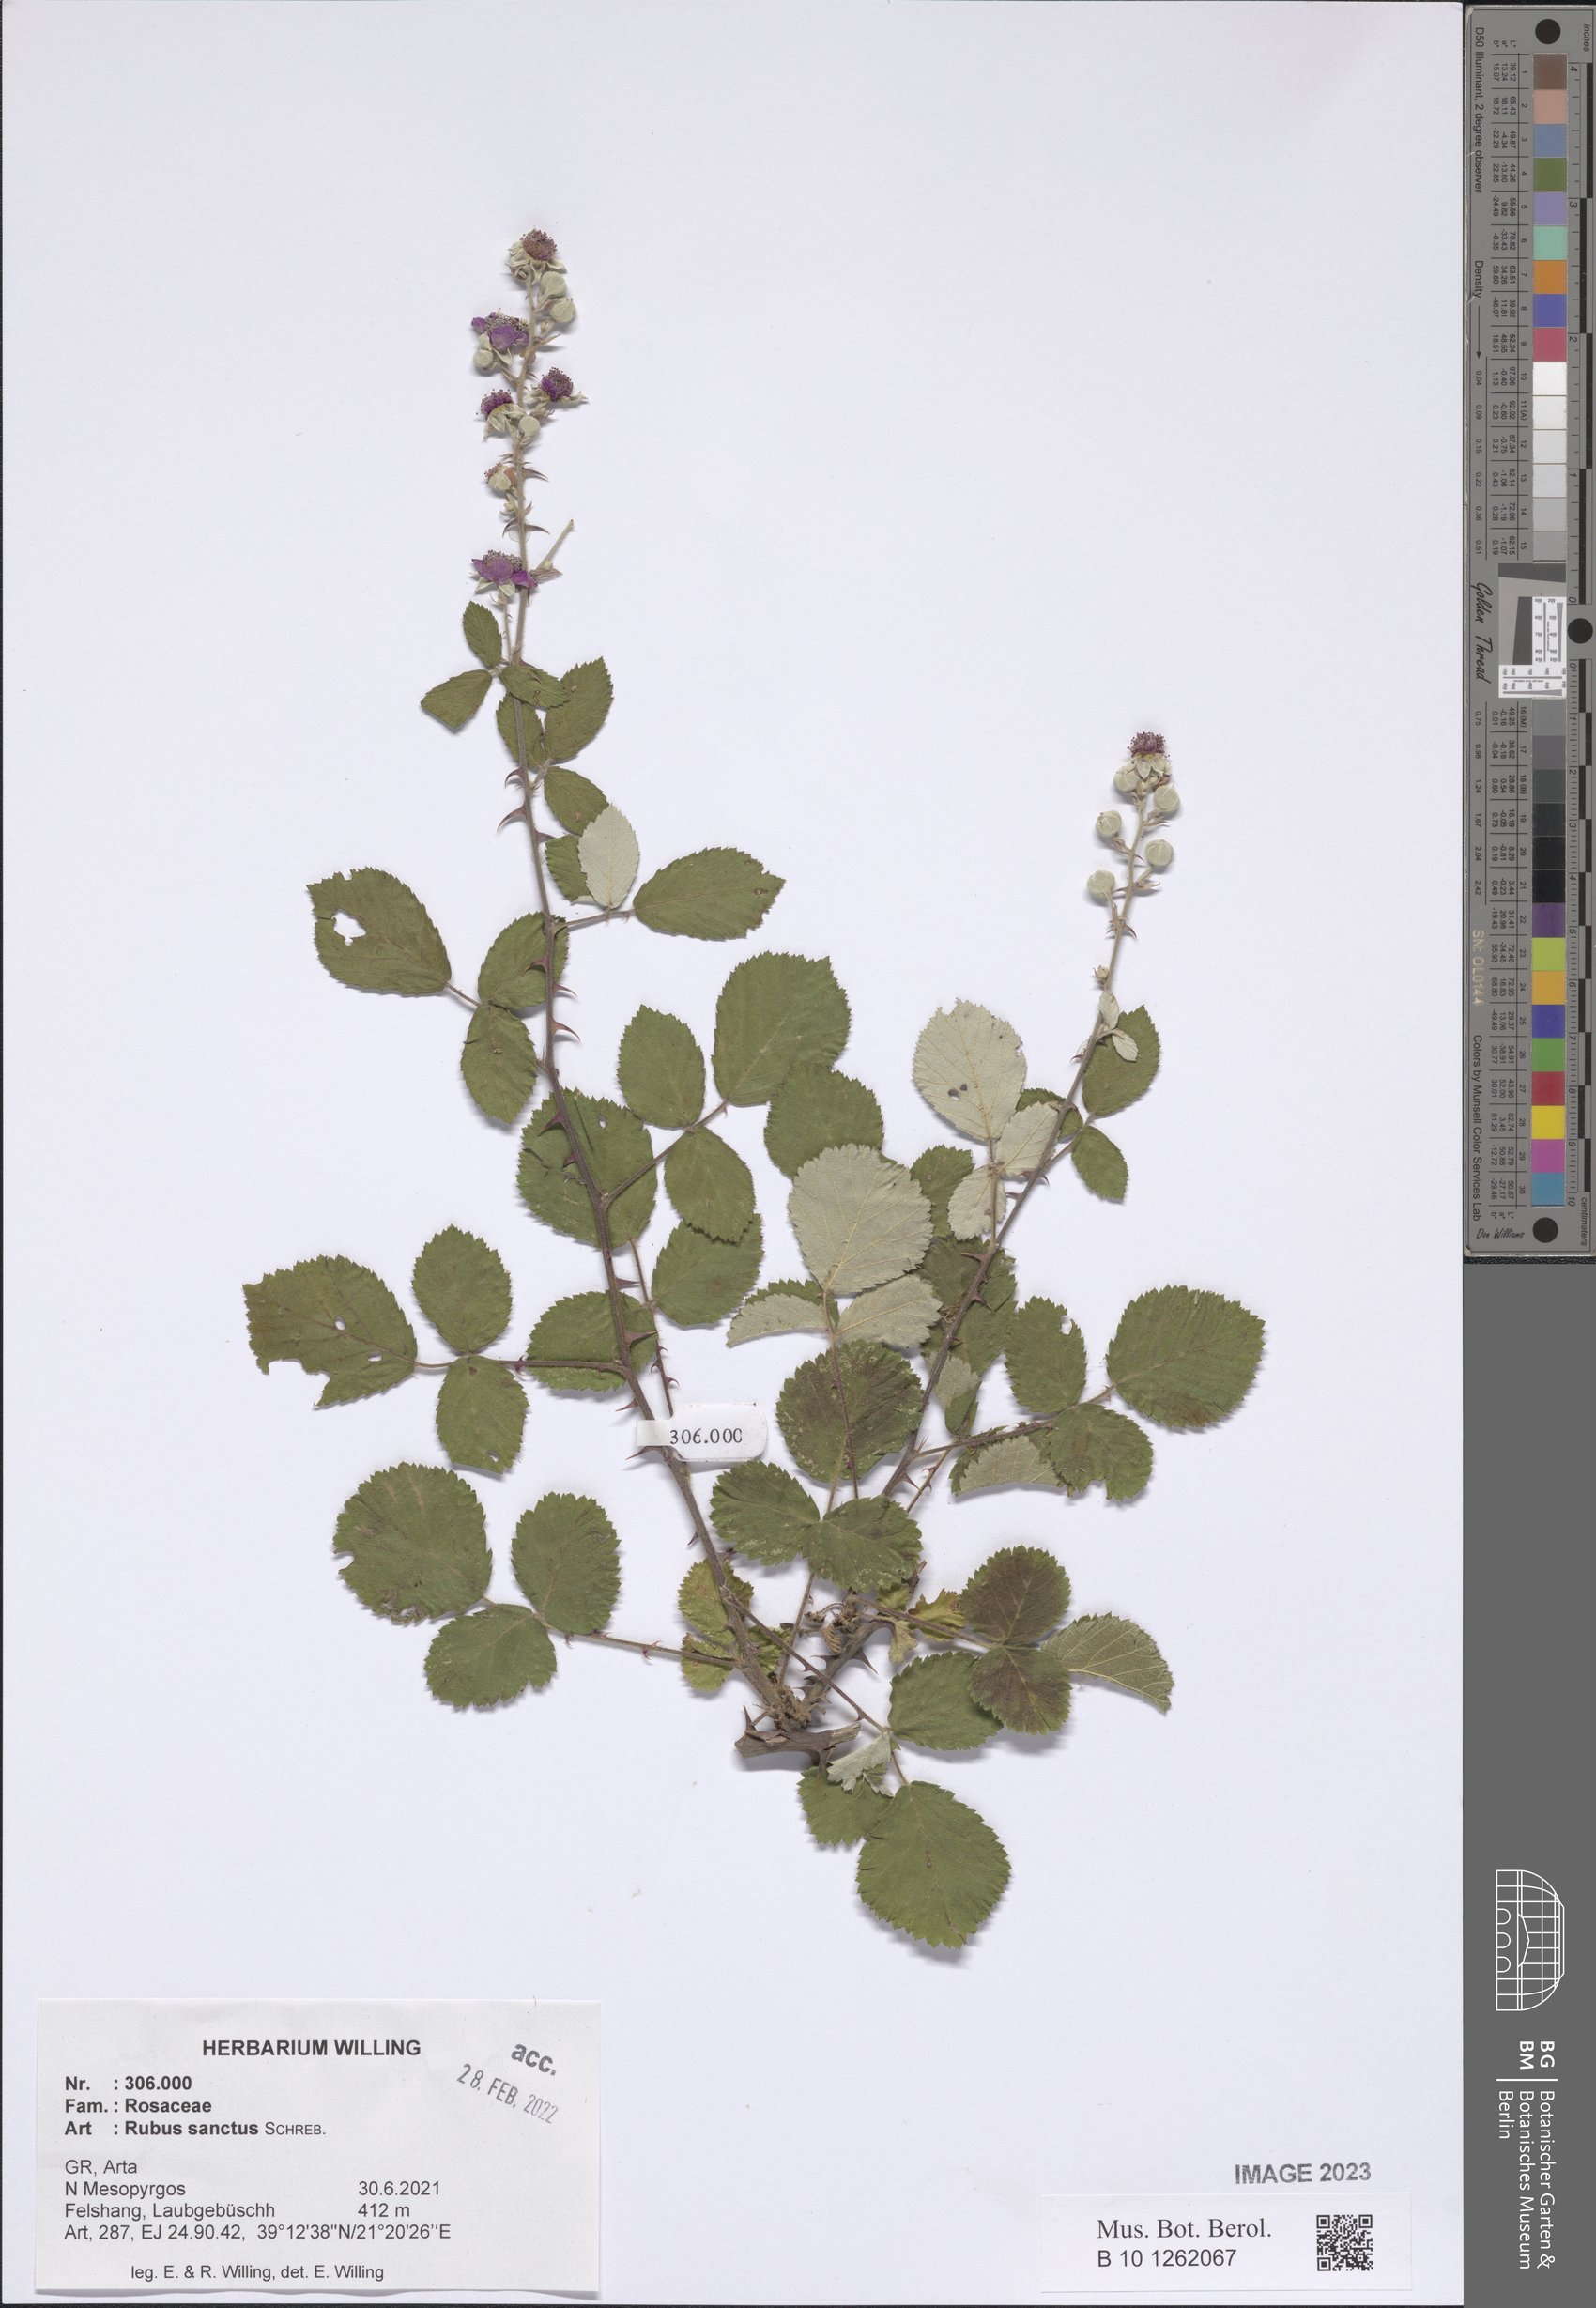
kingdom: Plantae
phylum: Tracheophyta
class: Magnoliopsida
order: Rosales
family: Rosaceae
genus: Rubus
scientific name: Rubus sanctus
